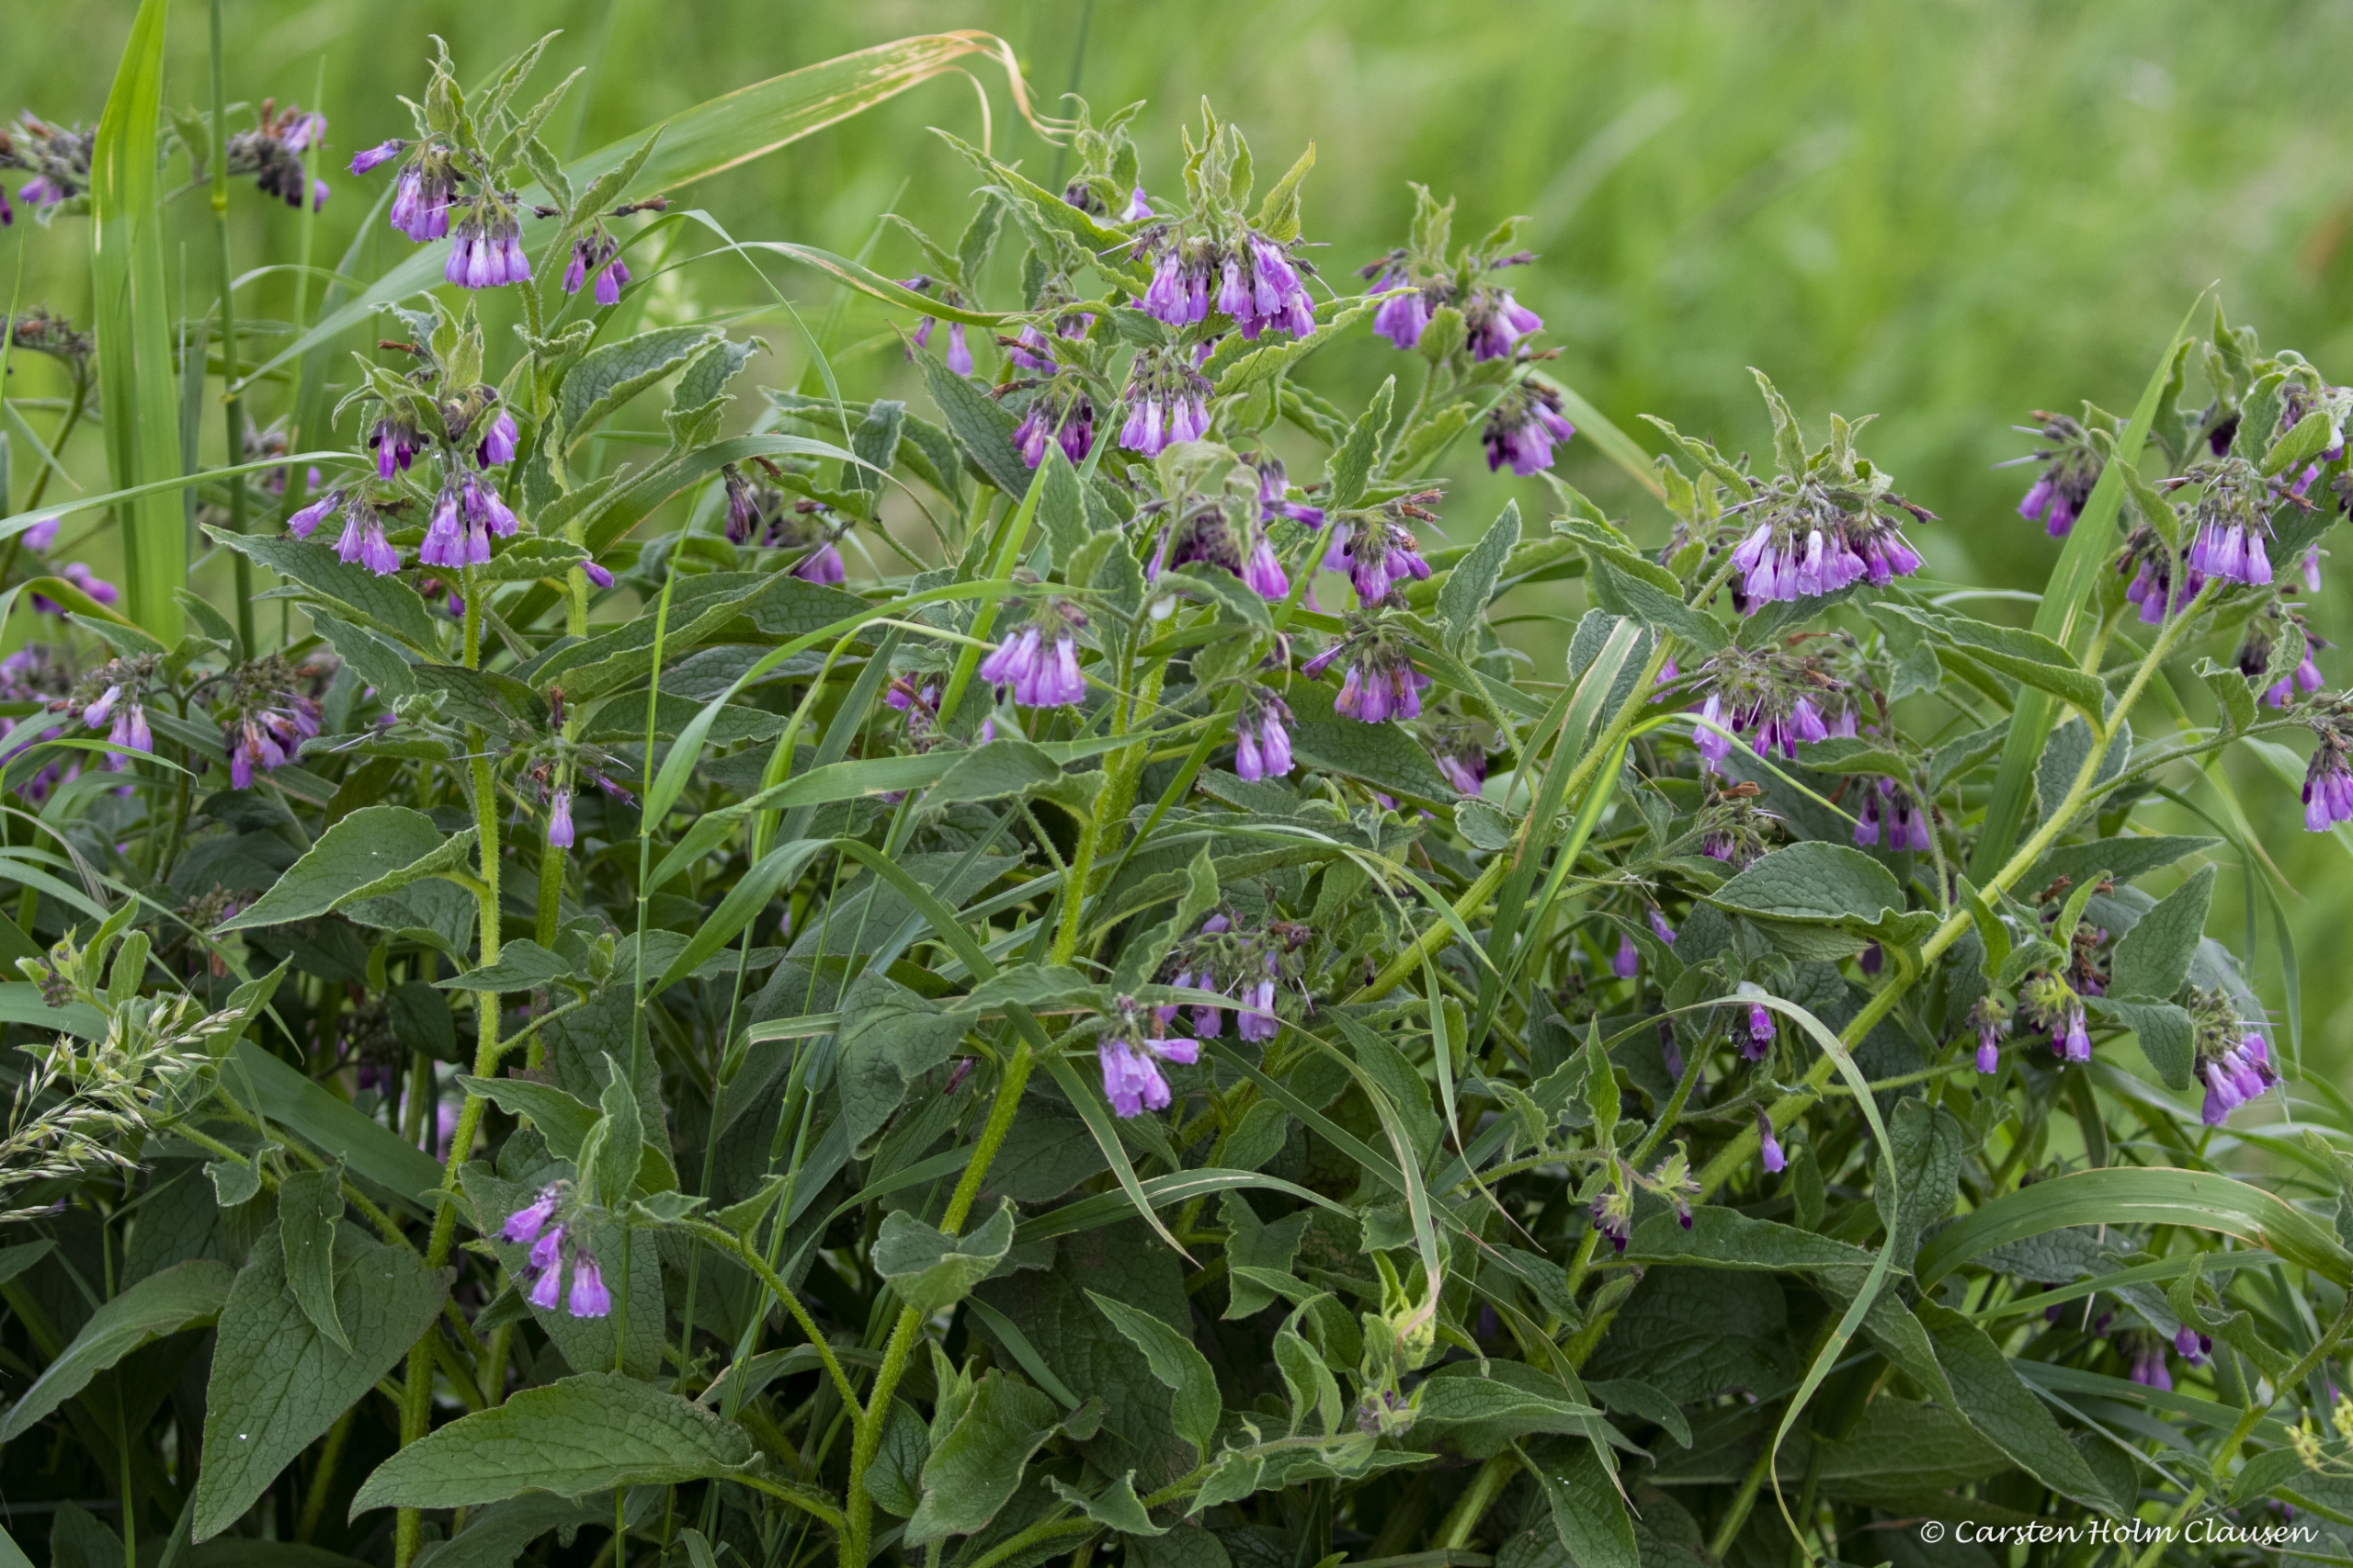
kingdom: Plantae
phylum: Tracheophyta
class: Magnoliopsida
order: Boraginales
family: Boraginaceae
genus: Symphytum
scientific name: Symphytum uplandicum
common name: Foder-kulsukker
